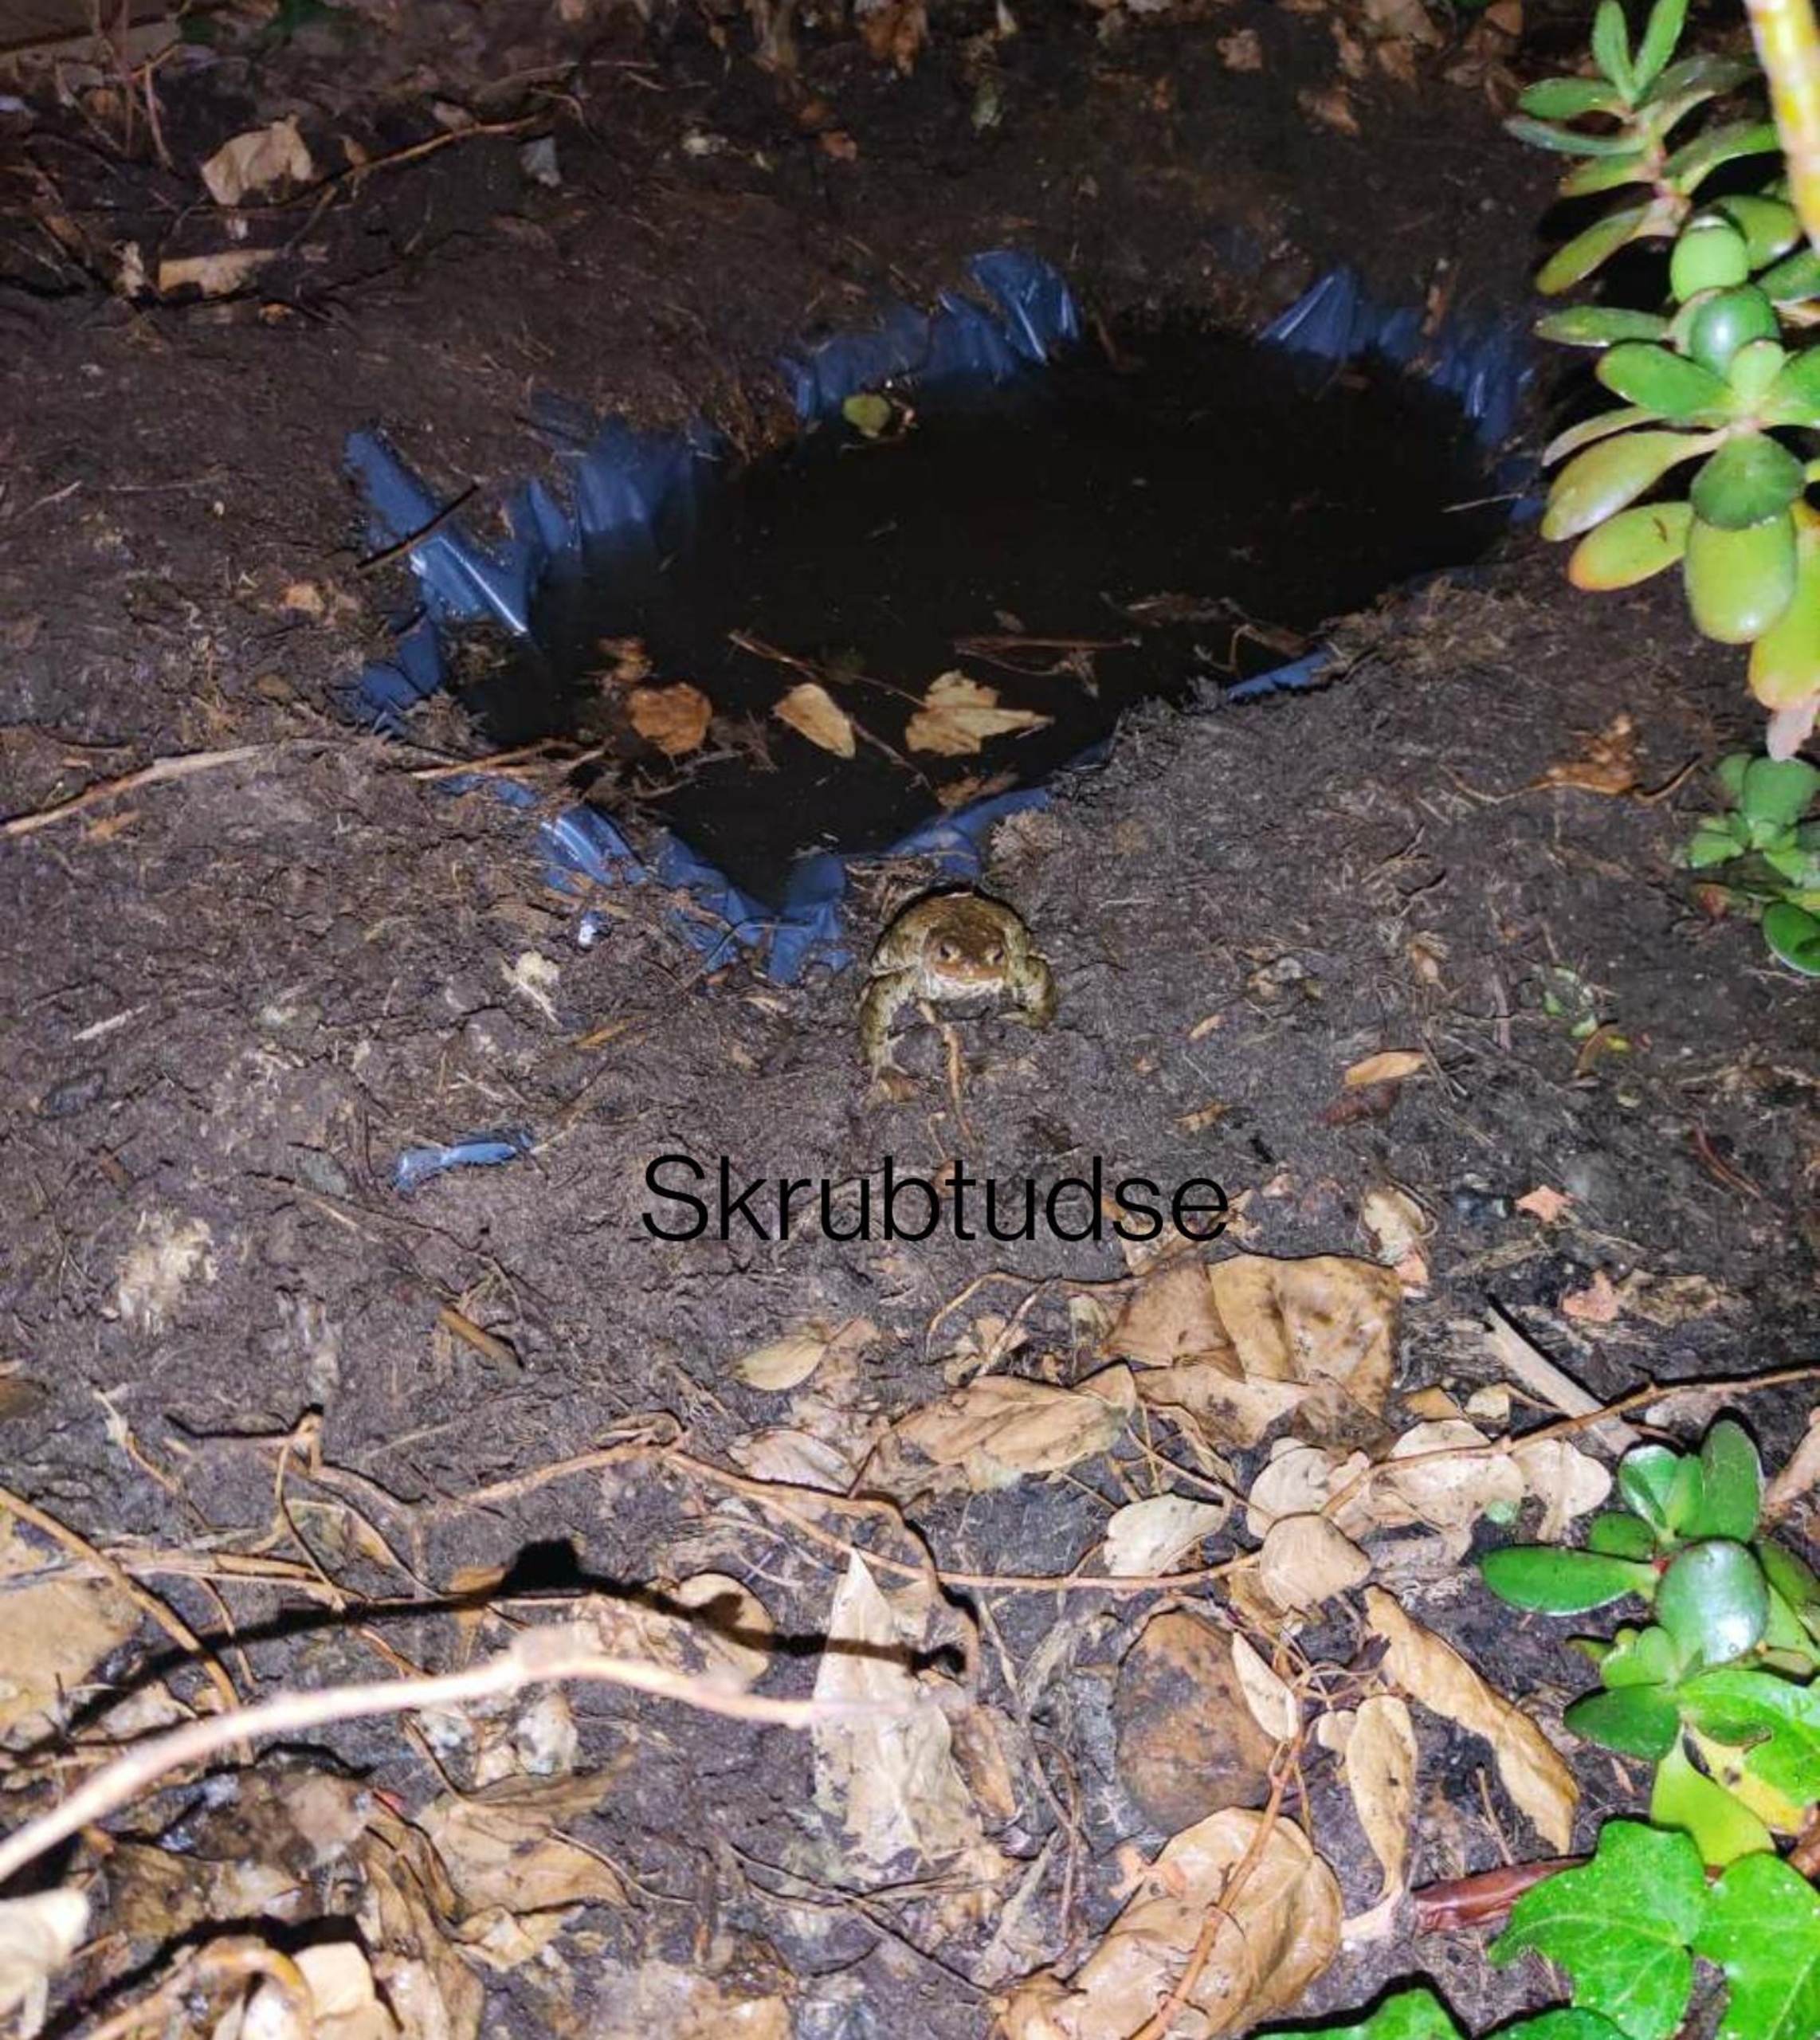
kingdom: Animalia
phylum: Chordata
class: Amphibia
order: Anura
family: Bufonidae
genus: Bufo
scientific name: Bufo bufo
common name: Skrubtudse
